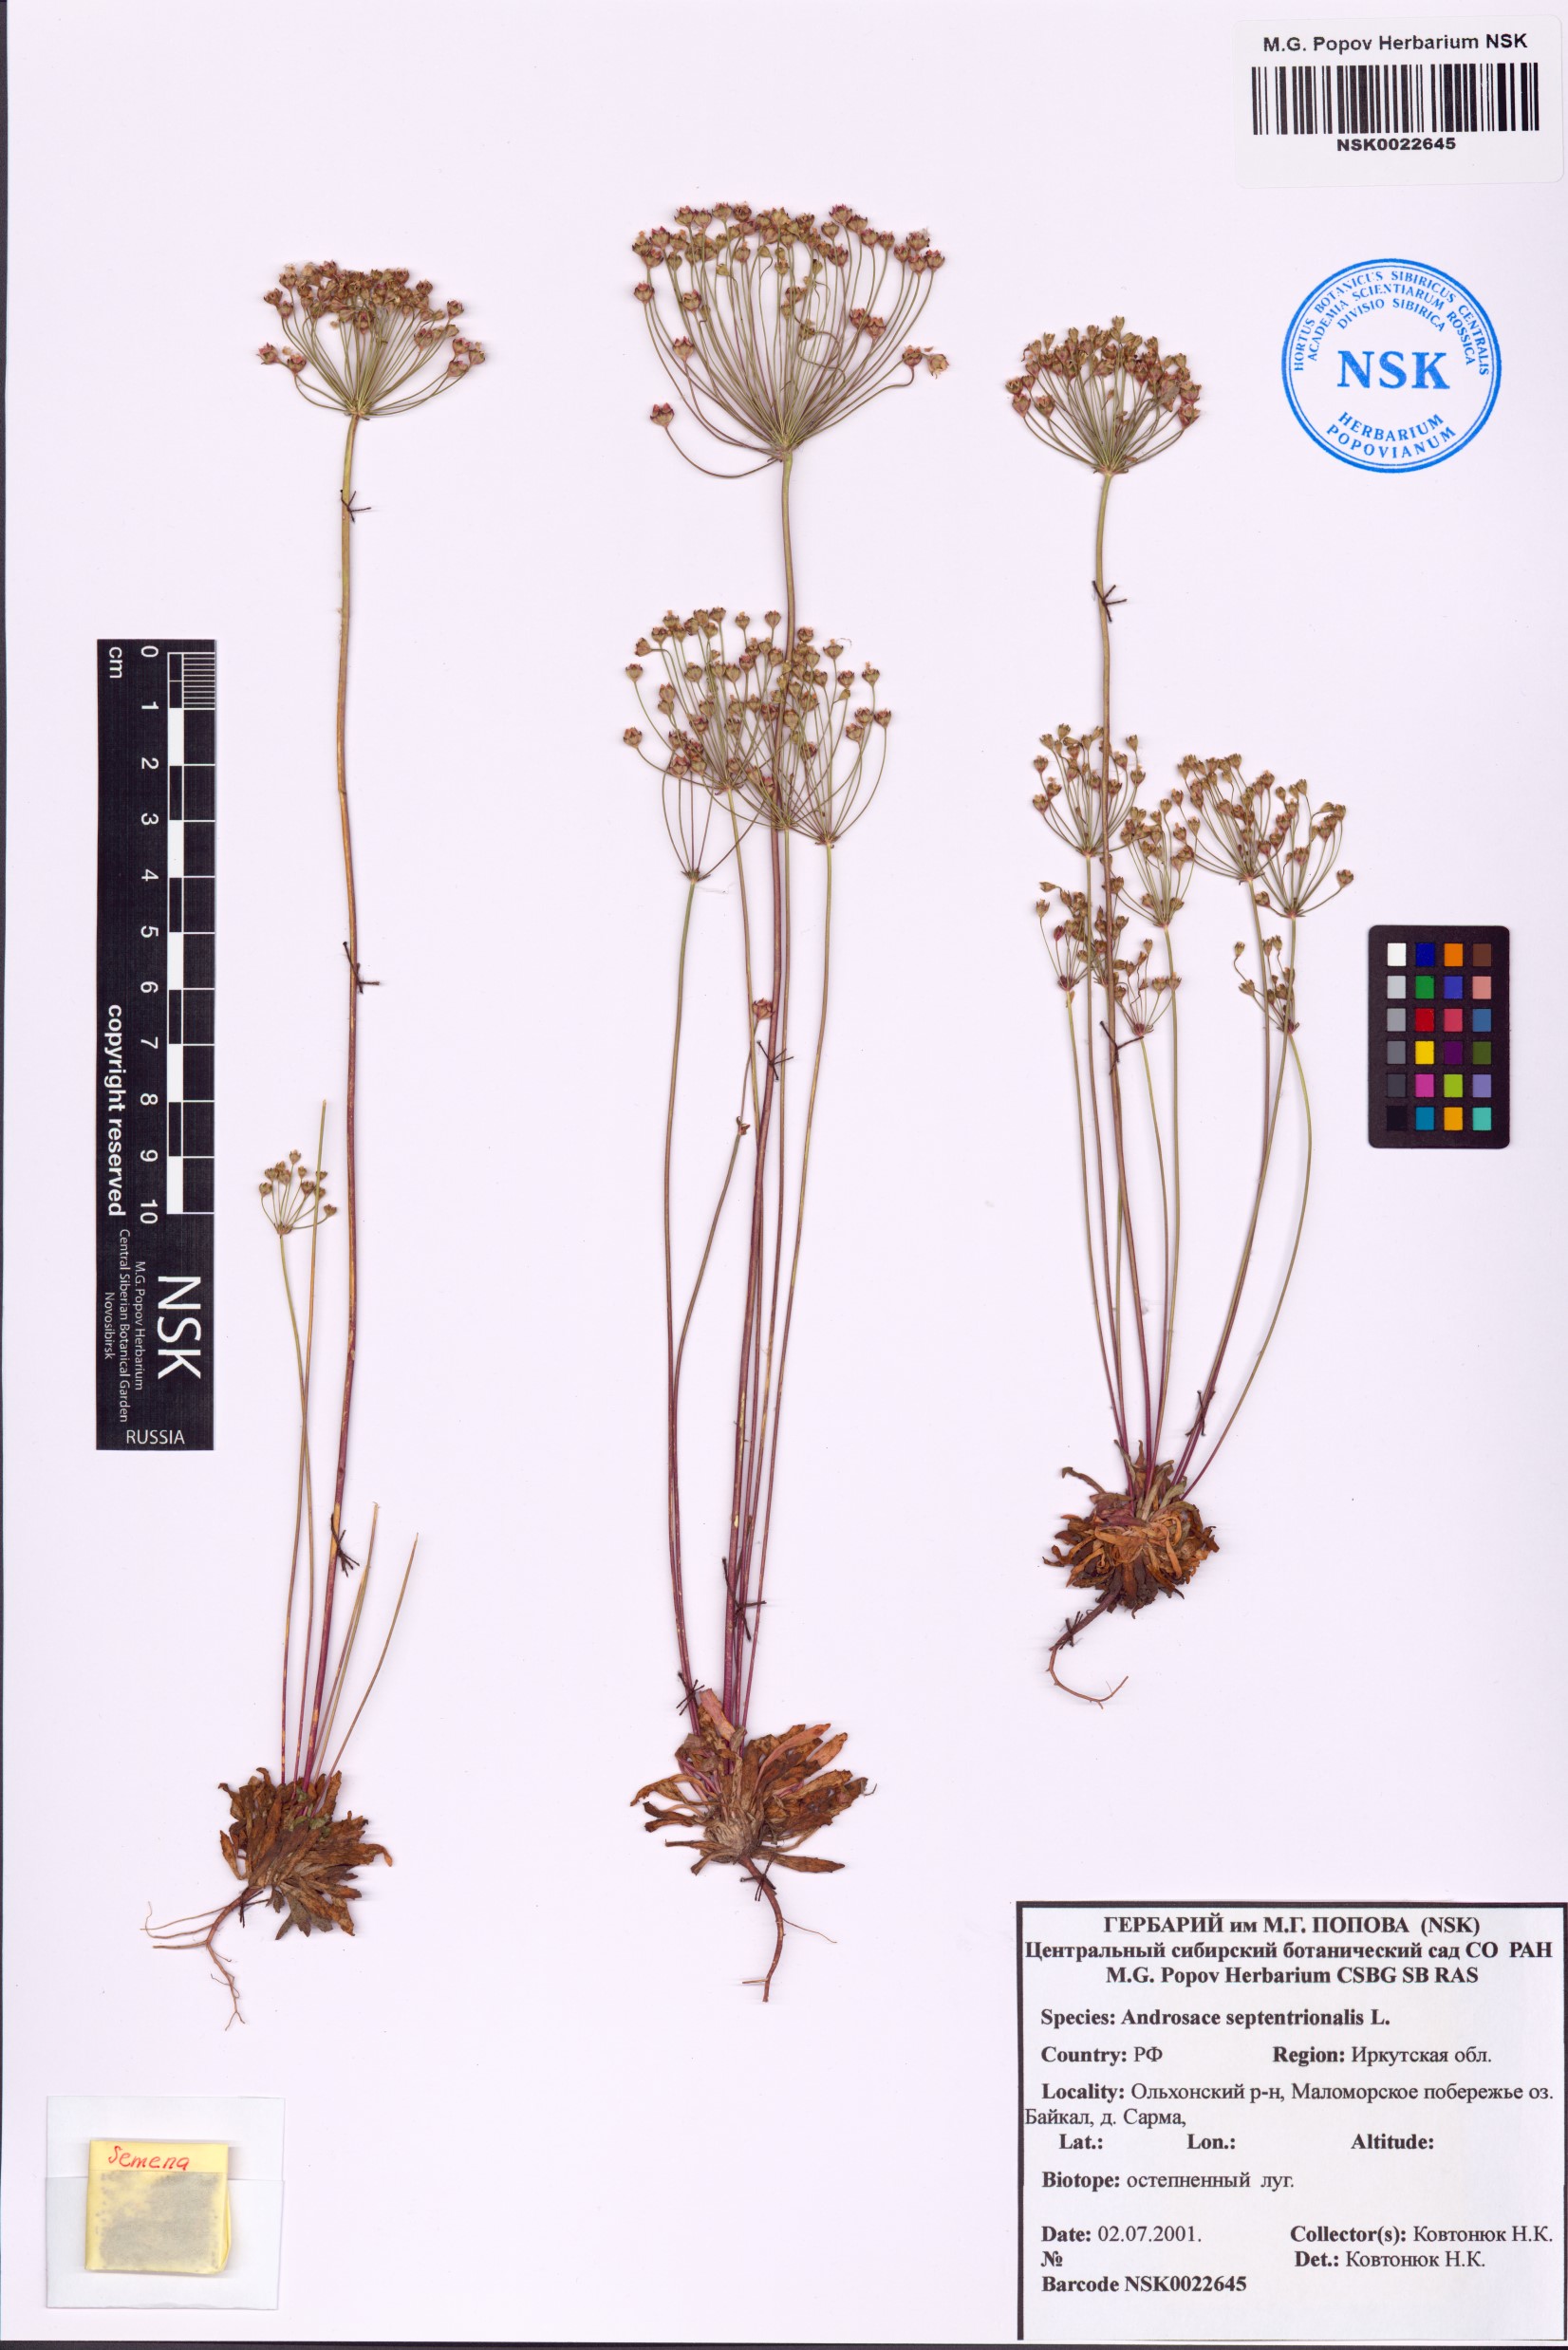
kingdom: Plantae
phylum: Tracheophyta
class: Magnoliopsida
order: Ericales
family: Primulaceae
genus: Androsace
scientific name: Androsace septentrionalis
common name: Hairy northern fairy-candelabra
